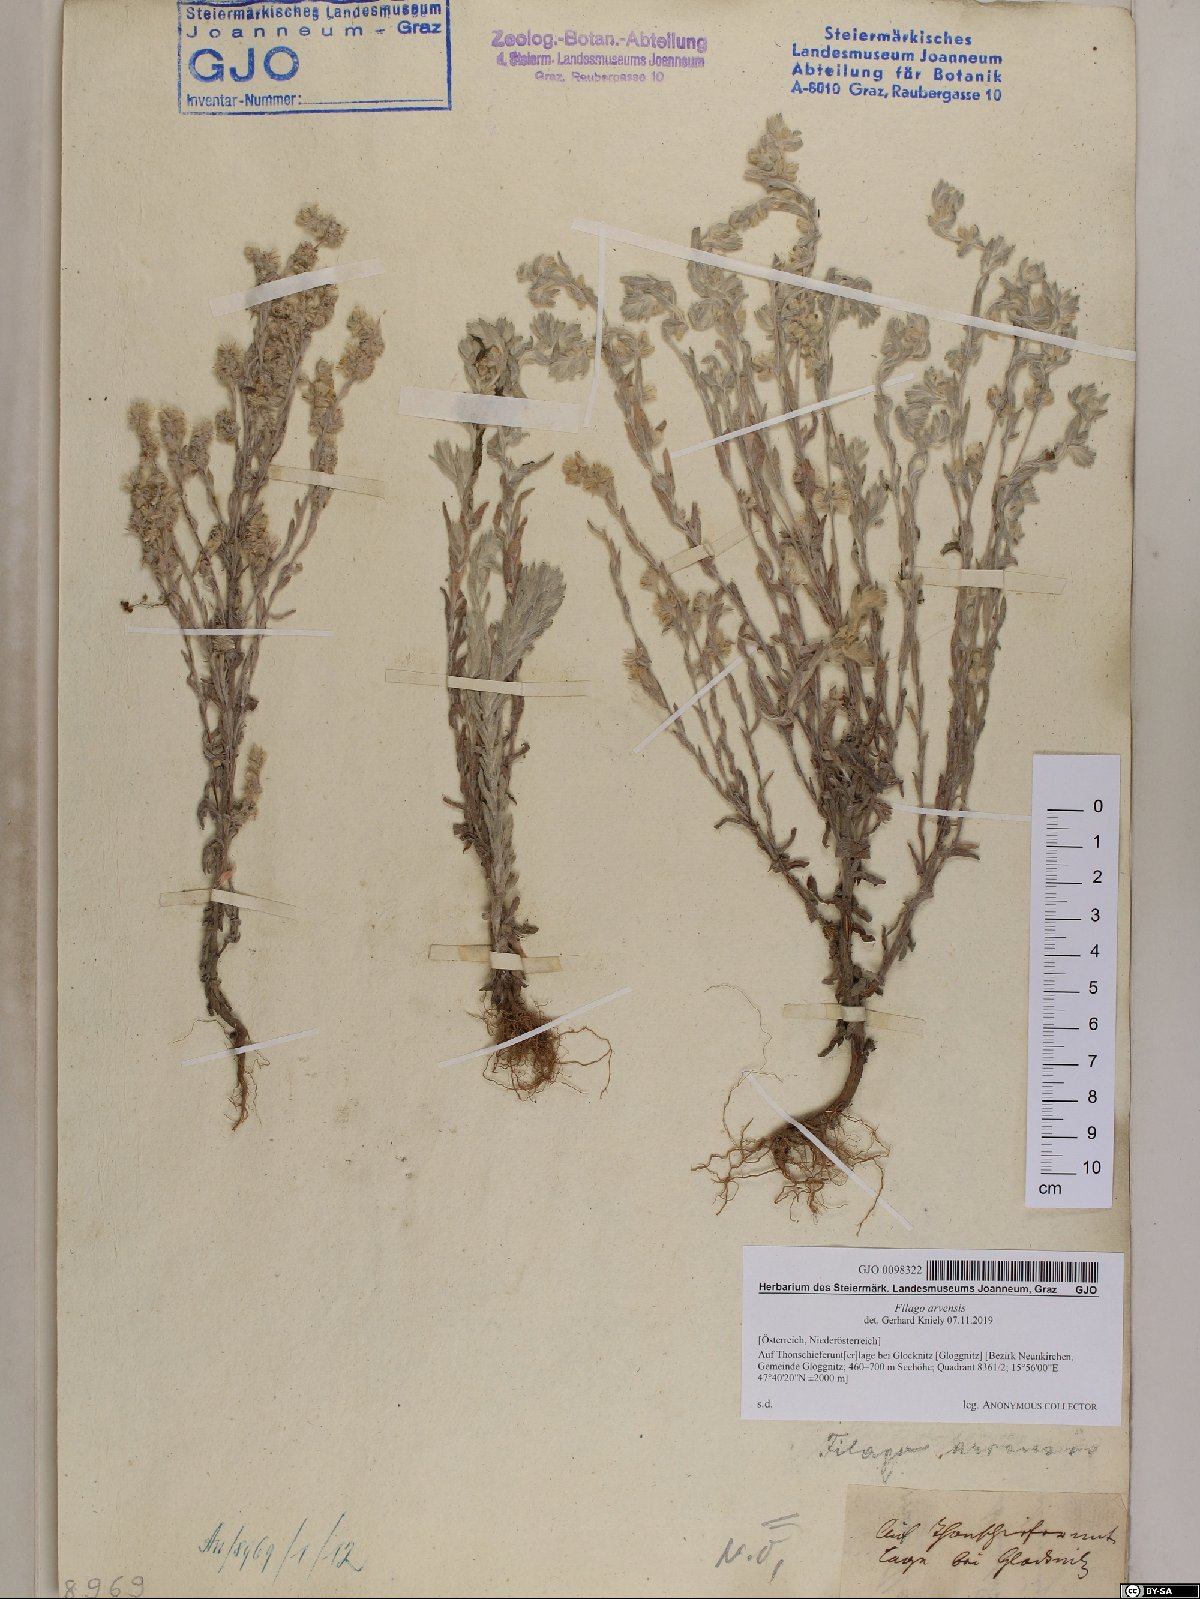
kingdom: Plantae
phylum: Tracheophyta
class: Magnoliopsida
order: Asterales
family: Asteraceae
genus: Filago
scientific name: Filago arvensis
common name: Field cudweed
